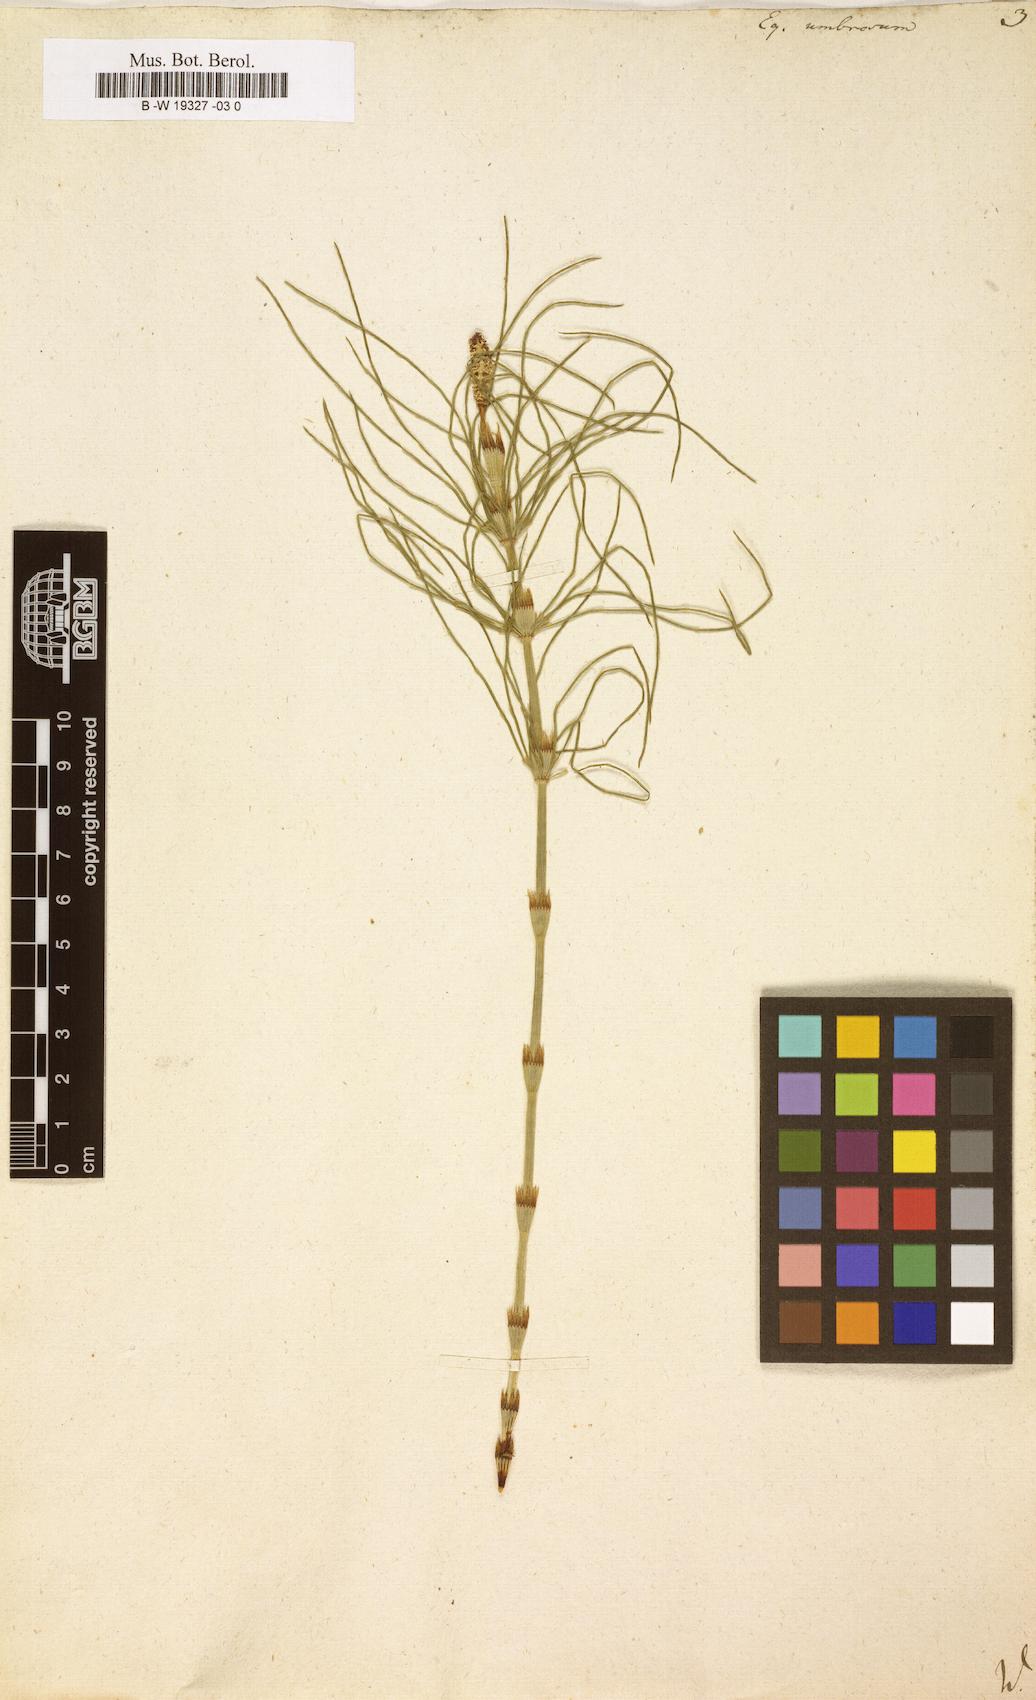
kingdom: Plantae
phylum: Tracheophyta
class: Polypodiopsida
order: Equisetales
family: Equisetaceae
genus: Equisetum
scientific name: Equisetum pratense
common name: Meadow horsetail
